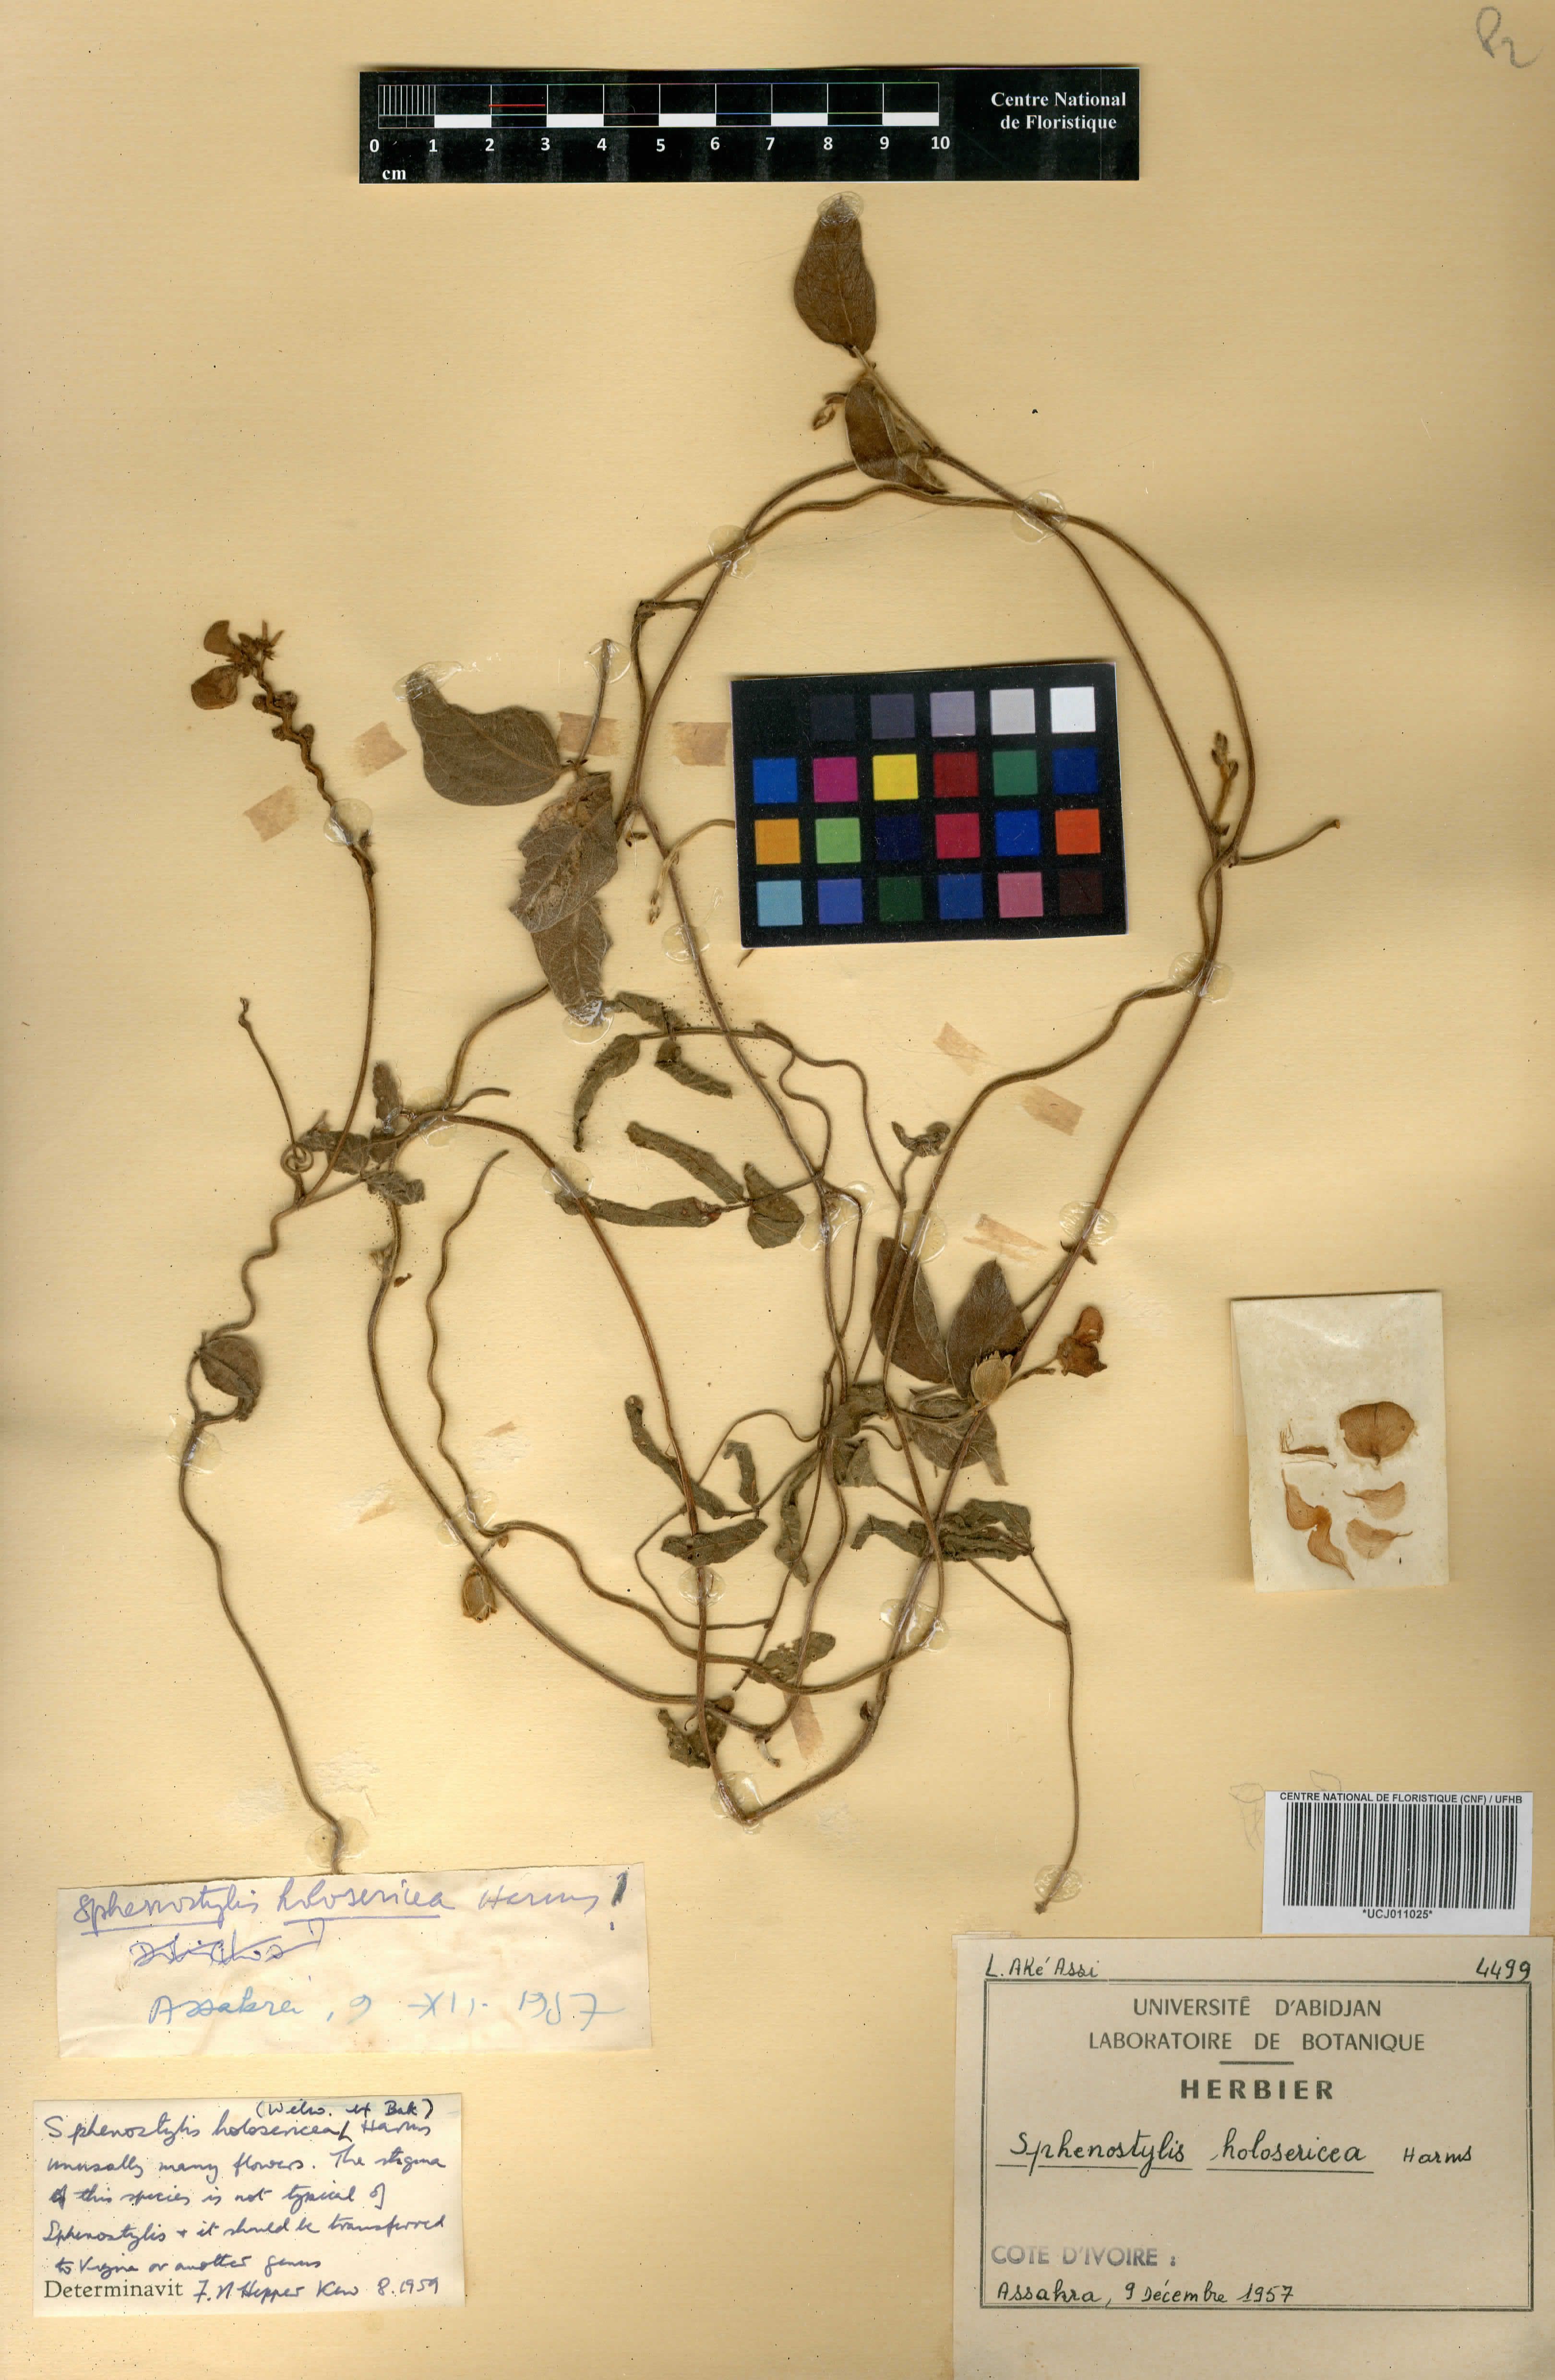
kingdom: Plantae
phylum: Tracheophyta
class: Magnoliopsida
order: Fabales
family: Fabaceae
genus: Nesphostylis
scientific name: Nesphostylis holosericea
